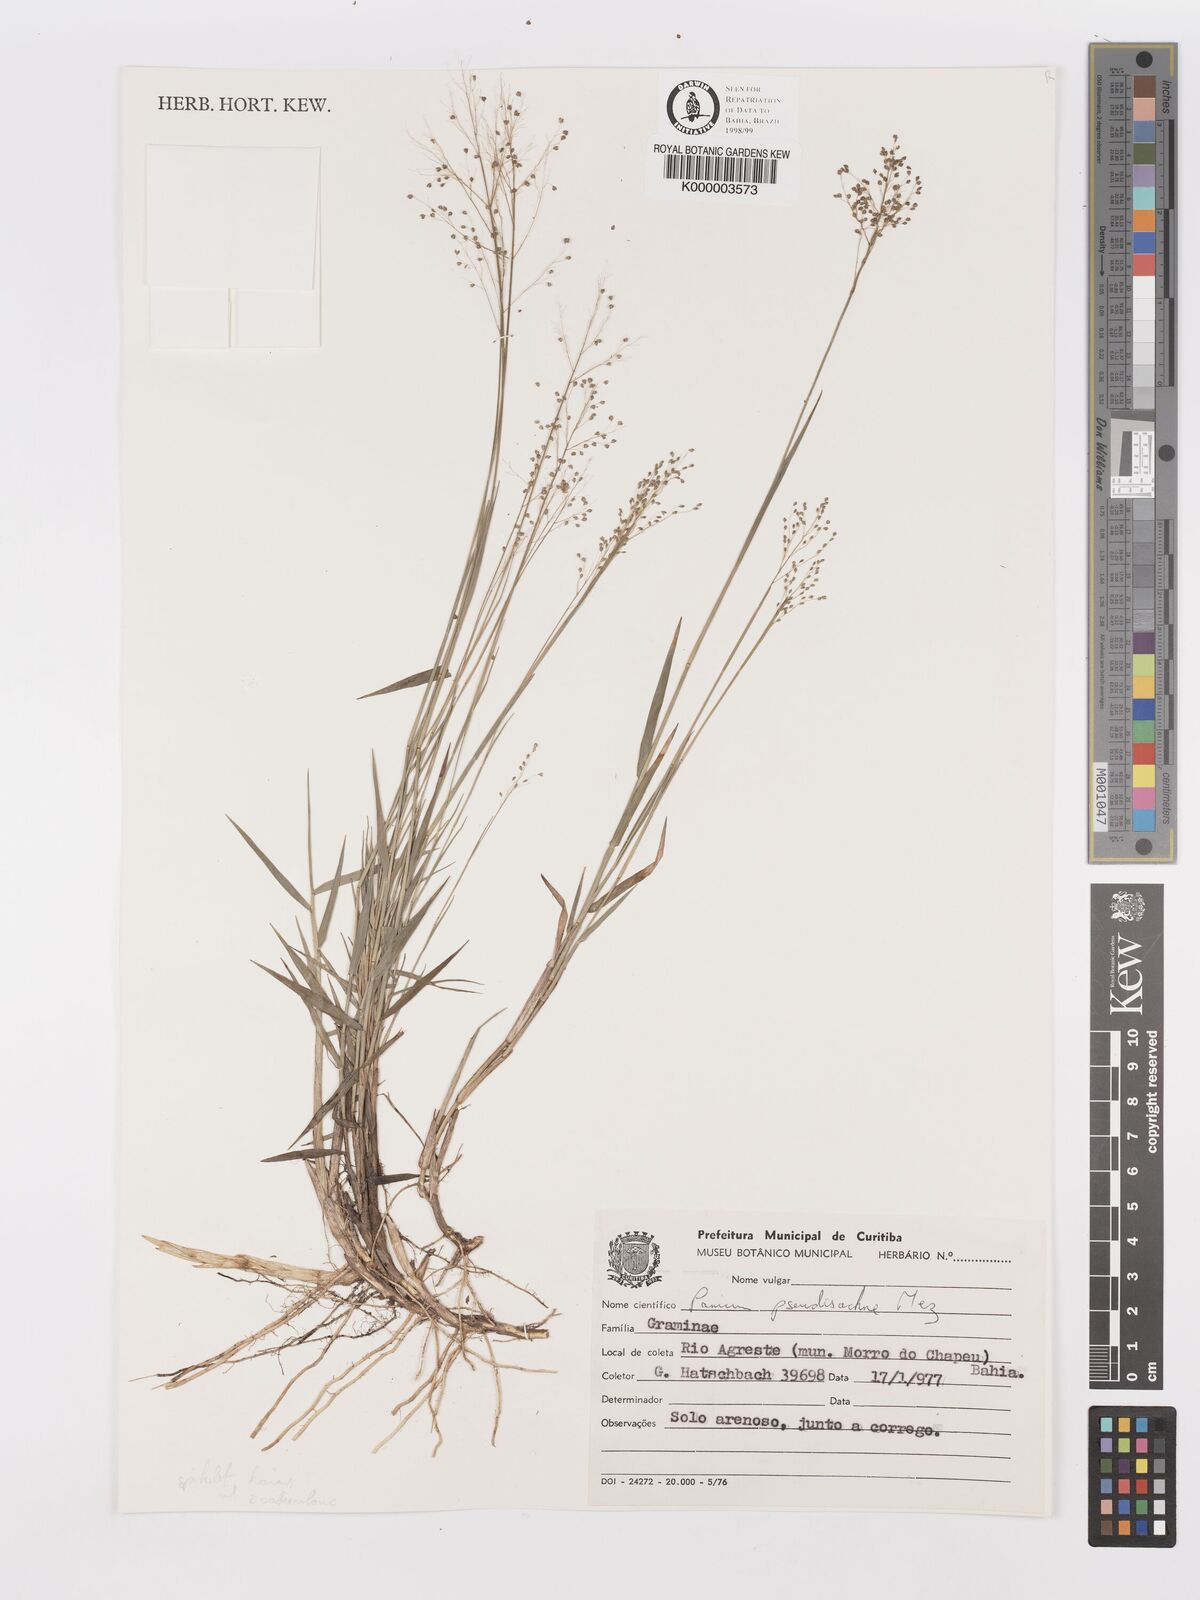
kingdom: Plantae
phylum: Tracheophyta
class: Liliopsida
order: Poales
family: Poaceae
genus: Trichanthecium
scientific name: Trichanthecium pseudisachne
